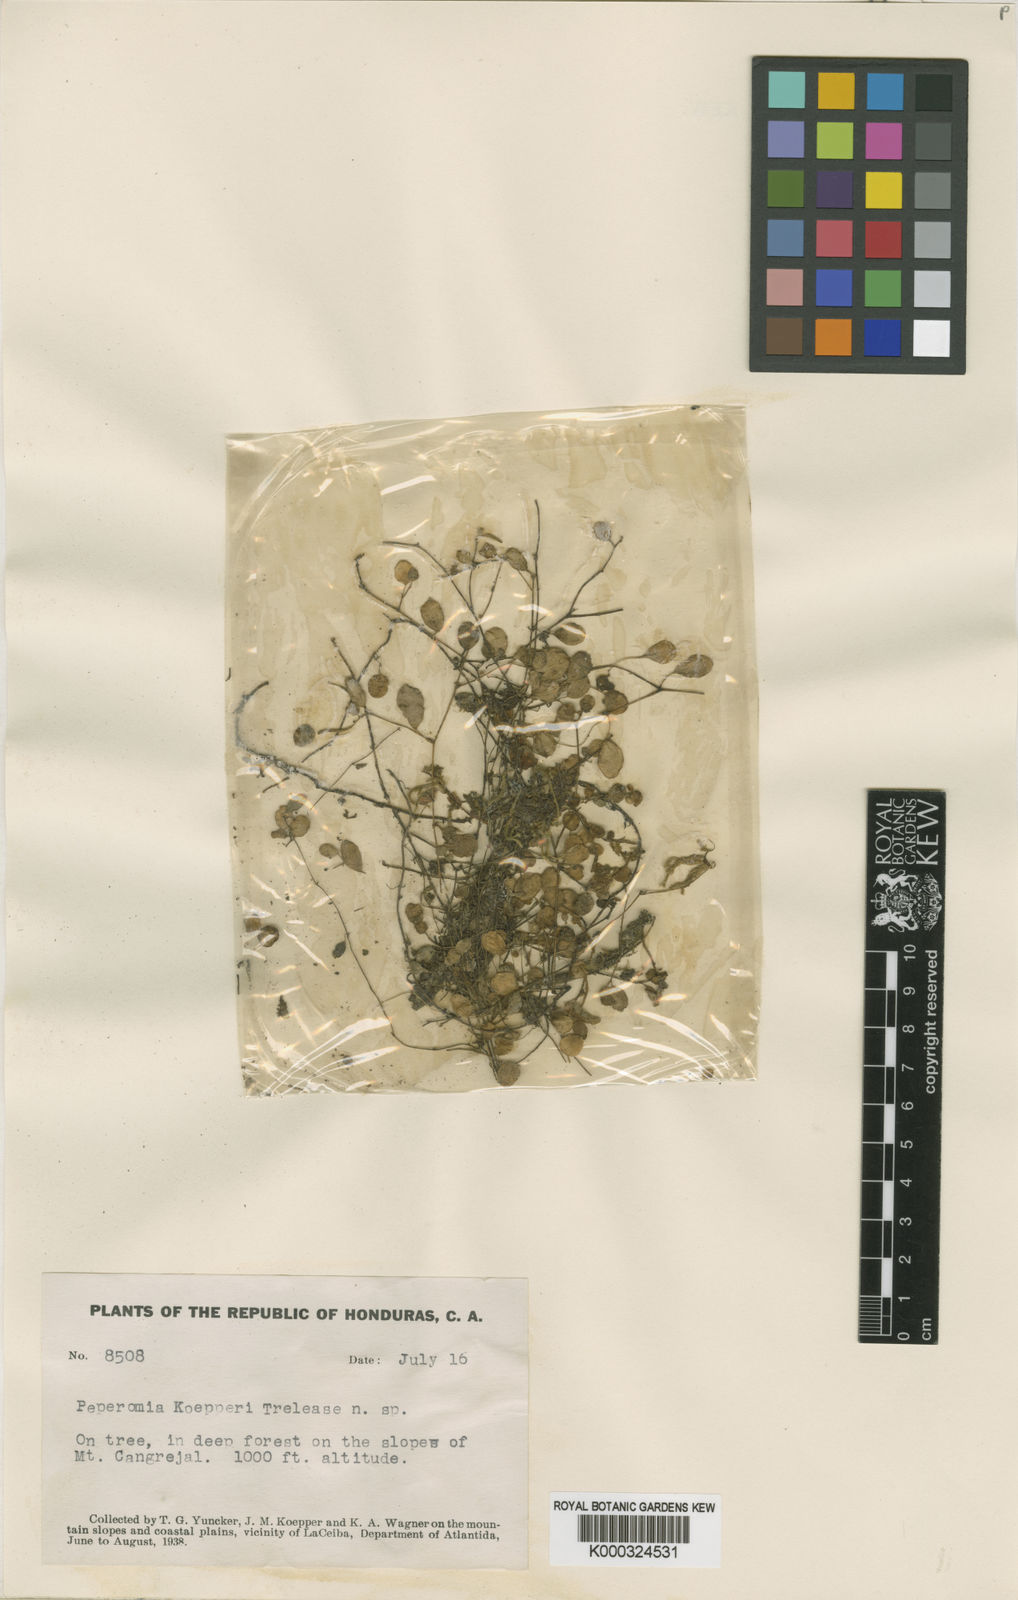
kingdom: Plantae
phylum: Tracheophyta
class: Magnoliopsida
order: Piperales
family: Piperaceae
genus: Peperomia
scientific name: Peperomia rotundifolia
